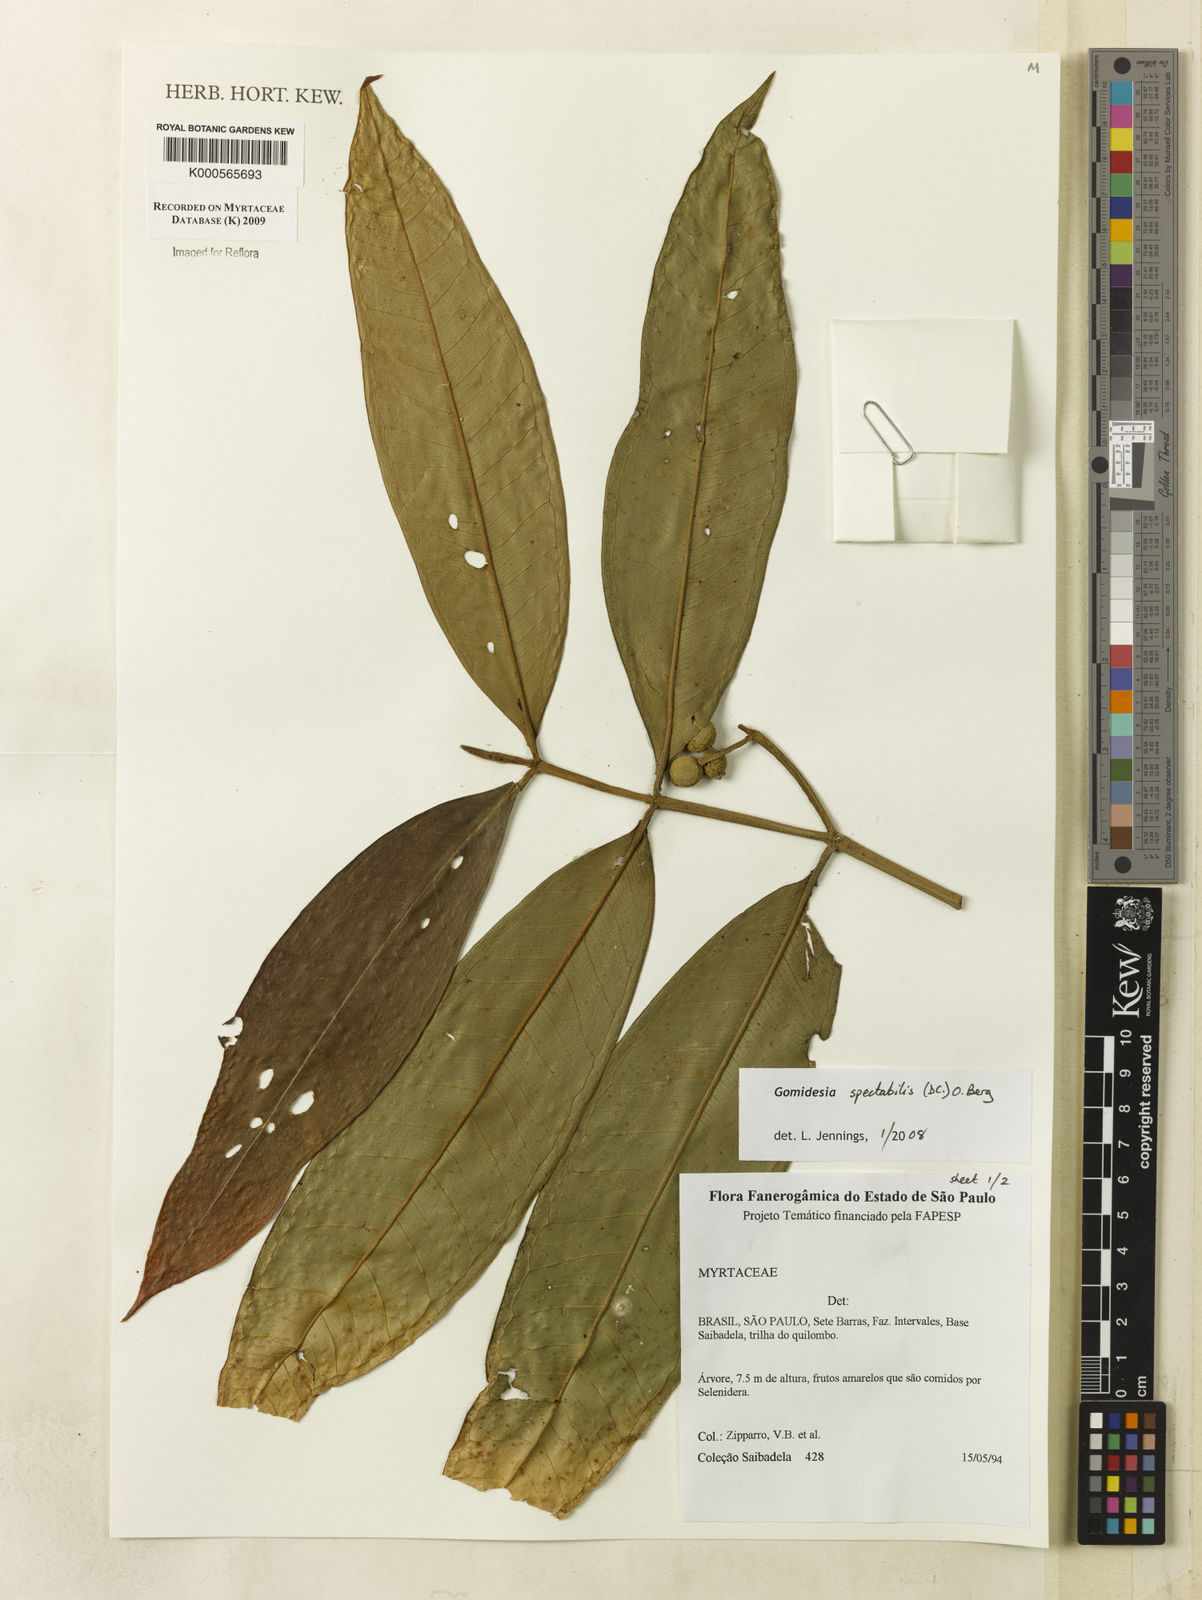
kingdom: Plantae
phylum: Tracheophyta
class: Magnoliopsida
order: Myrtales
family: Myrtaceae
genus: Myrcia
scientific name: Myrcia spectabilis
